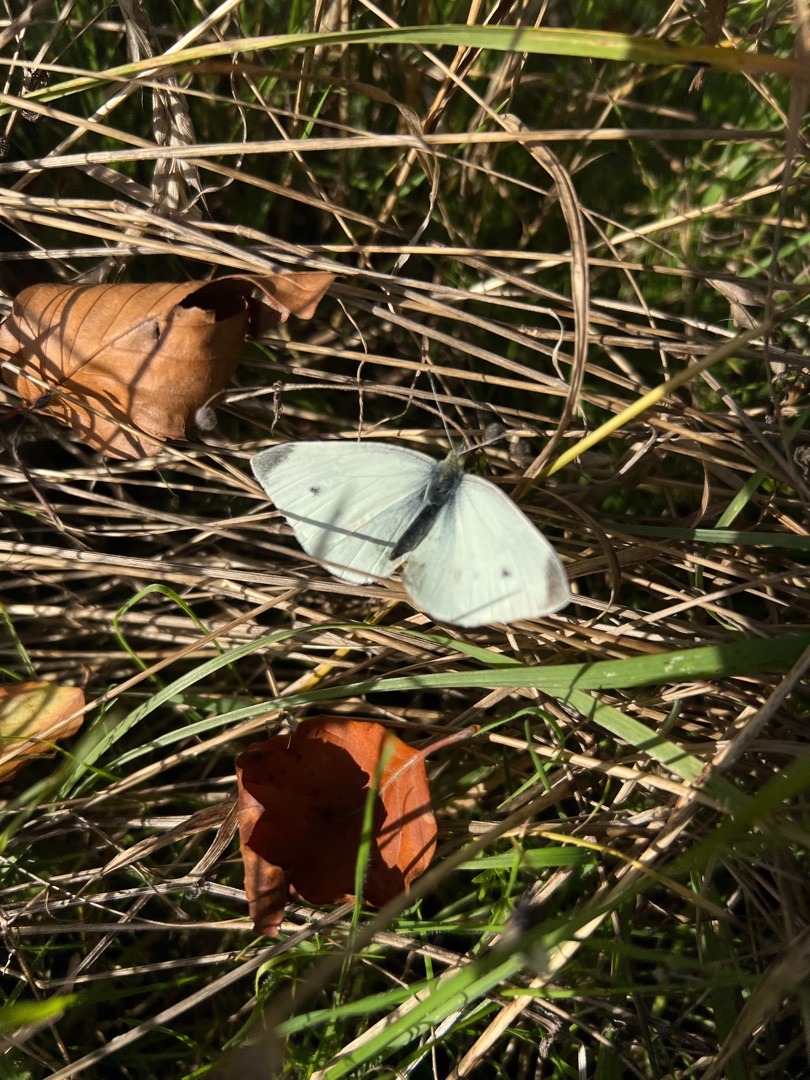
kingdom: Animalia
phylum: Arthropoda
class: Insecta
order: Lepidoptera
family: Pieridae
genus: Pieris
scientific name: Pieris rapae
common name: Lille kålsommerfugl
